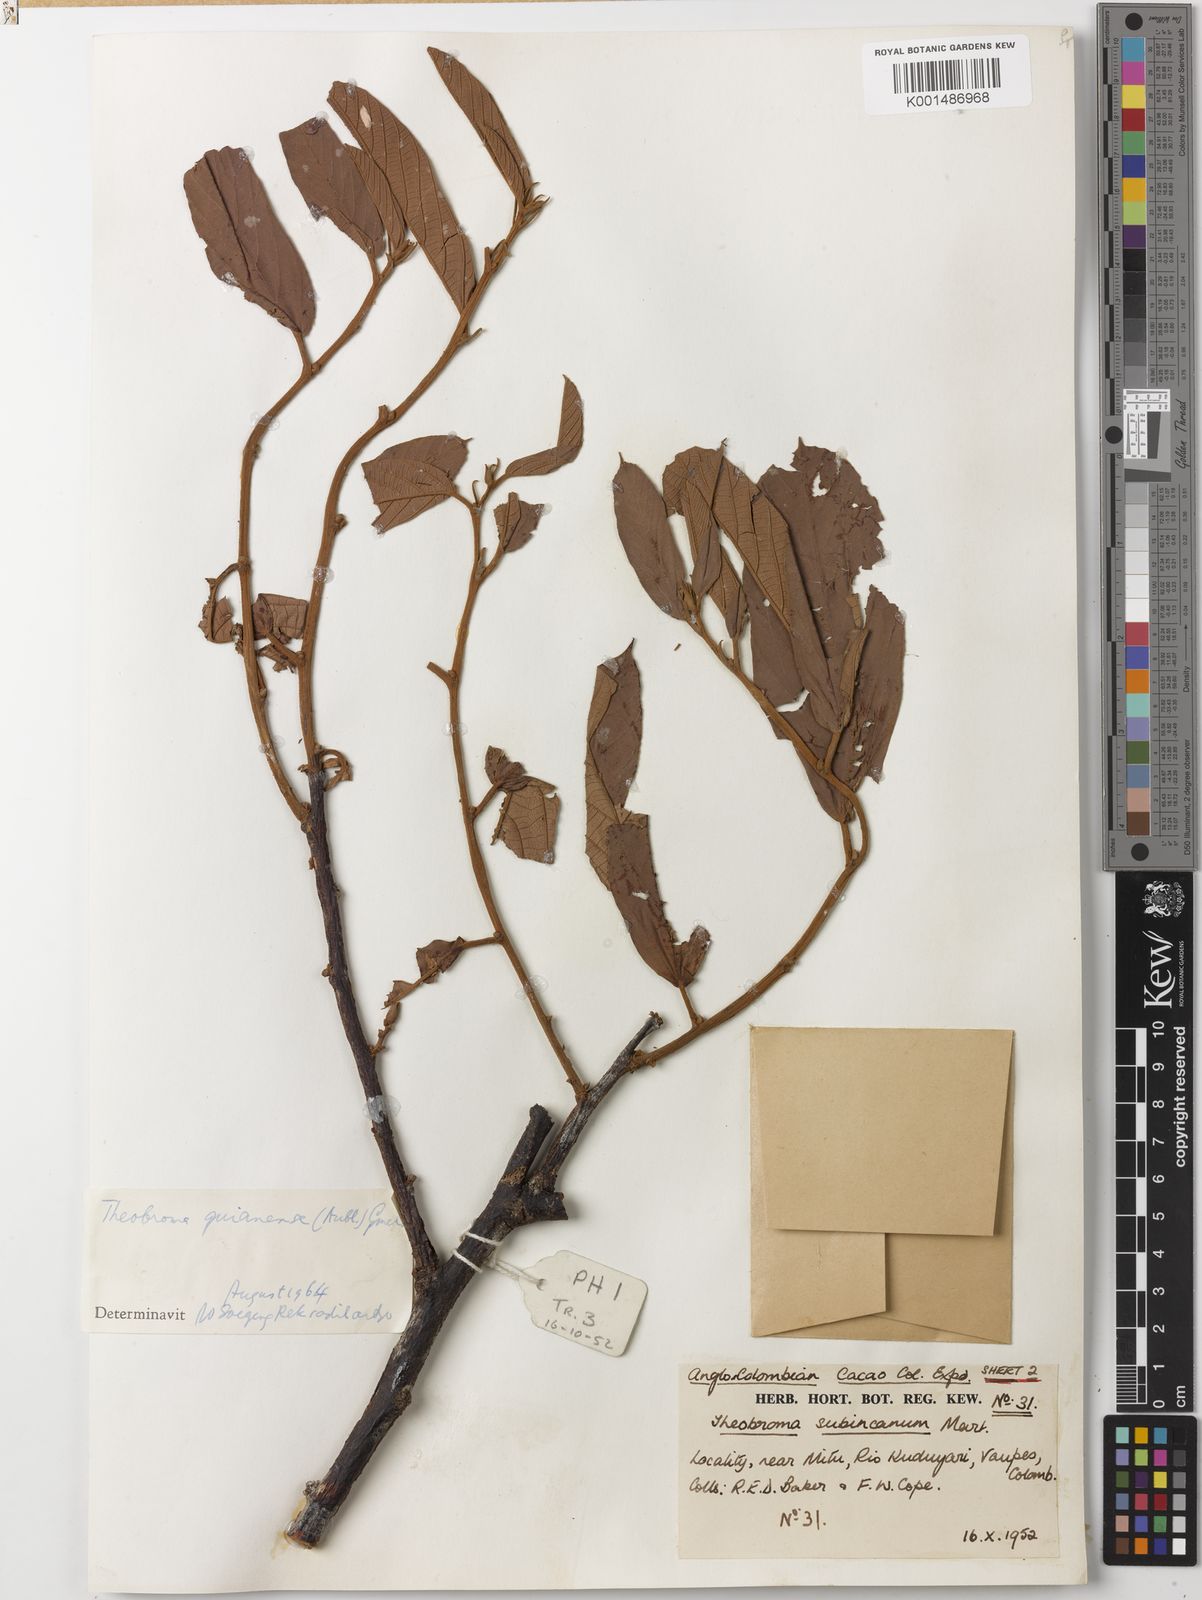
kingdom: Plantae
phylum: Tracheophyta
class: Magnoliopsida
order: Malvales
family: Malvaceae
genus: Theobroma
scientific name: Theobroma subincanum
